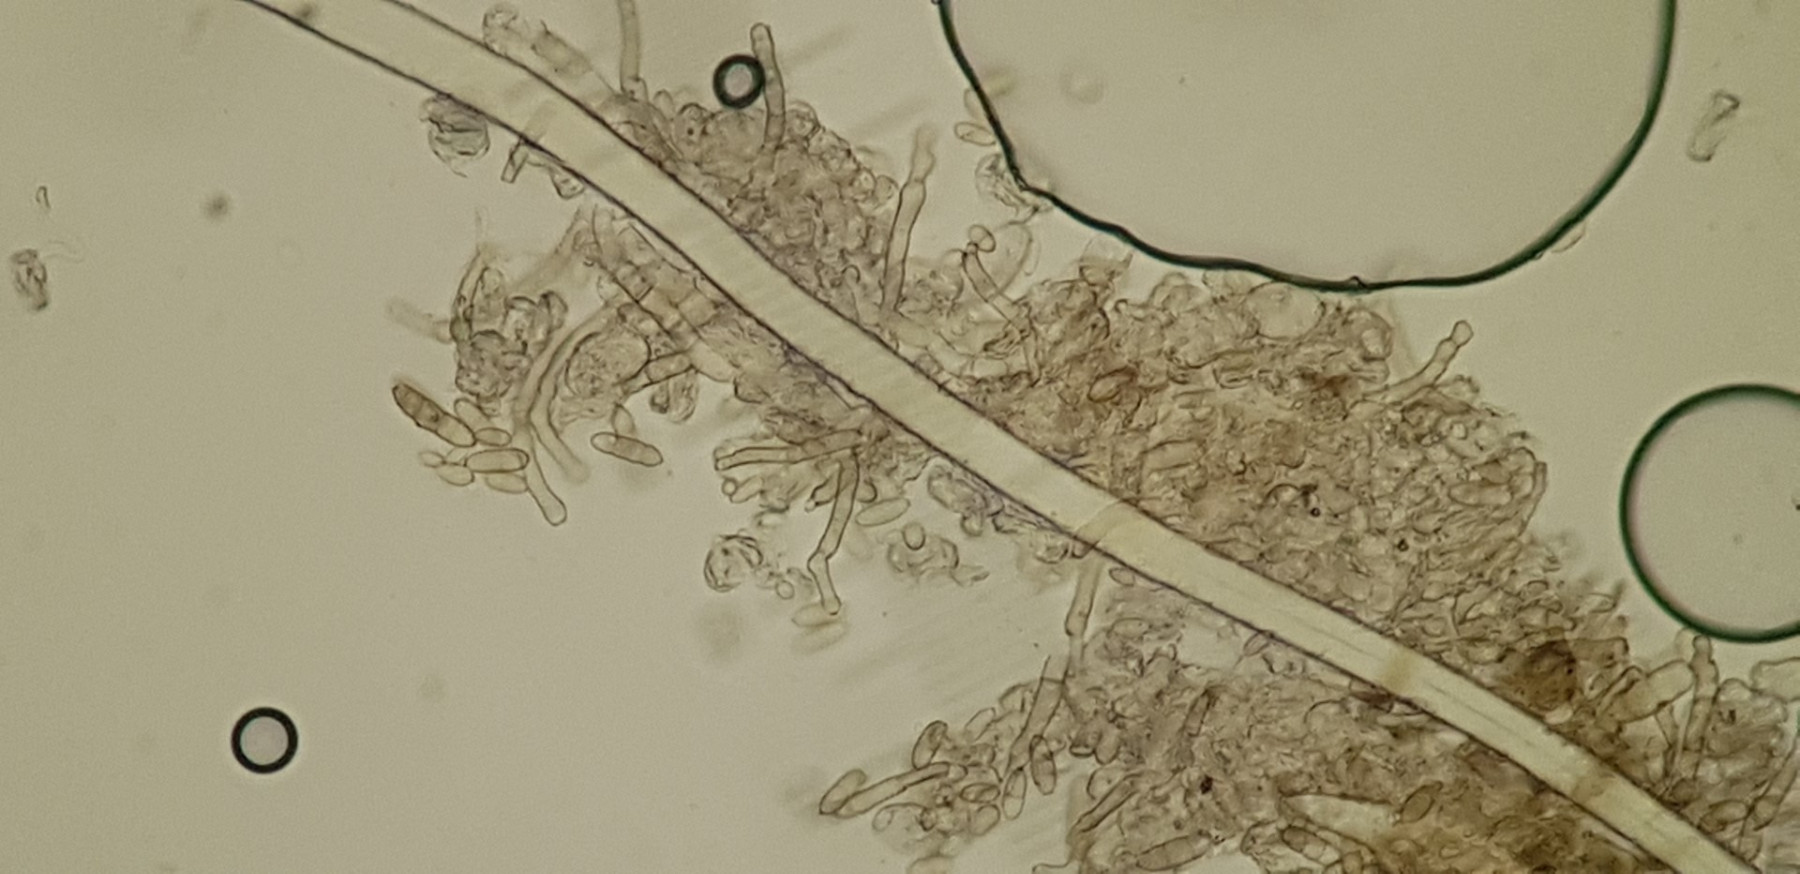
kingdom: Fungi
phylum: Ascomycota
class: Dothideomycetes
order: Capnodiales
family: Cladosporiaceae
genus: Cladosporium
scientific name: Cladosporium
